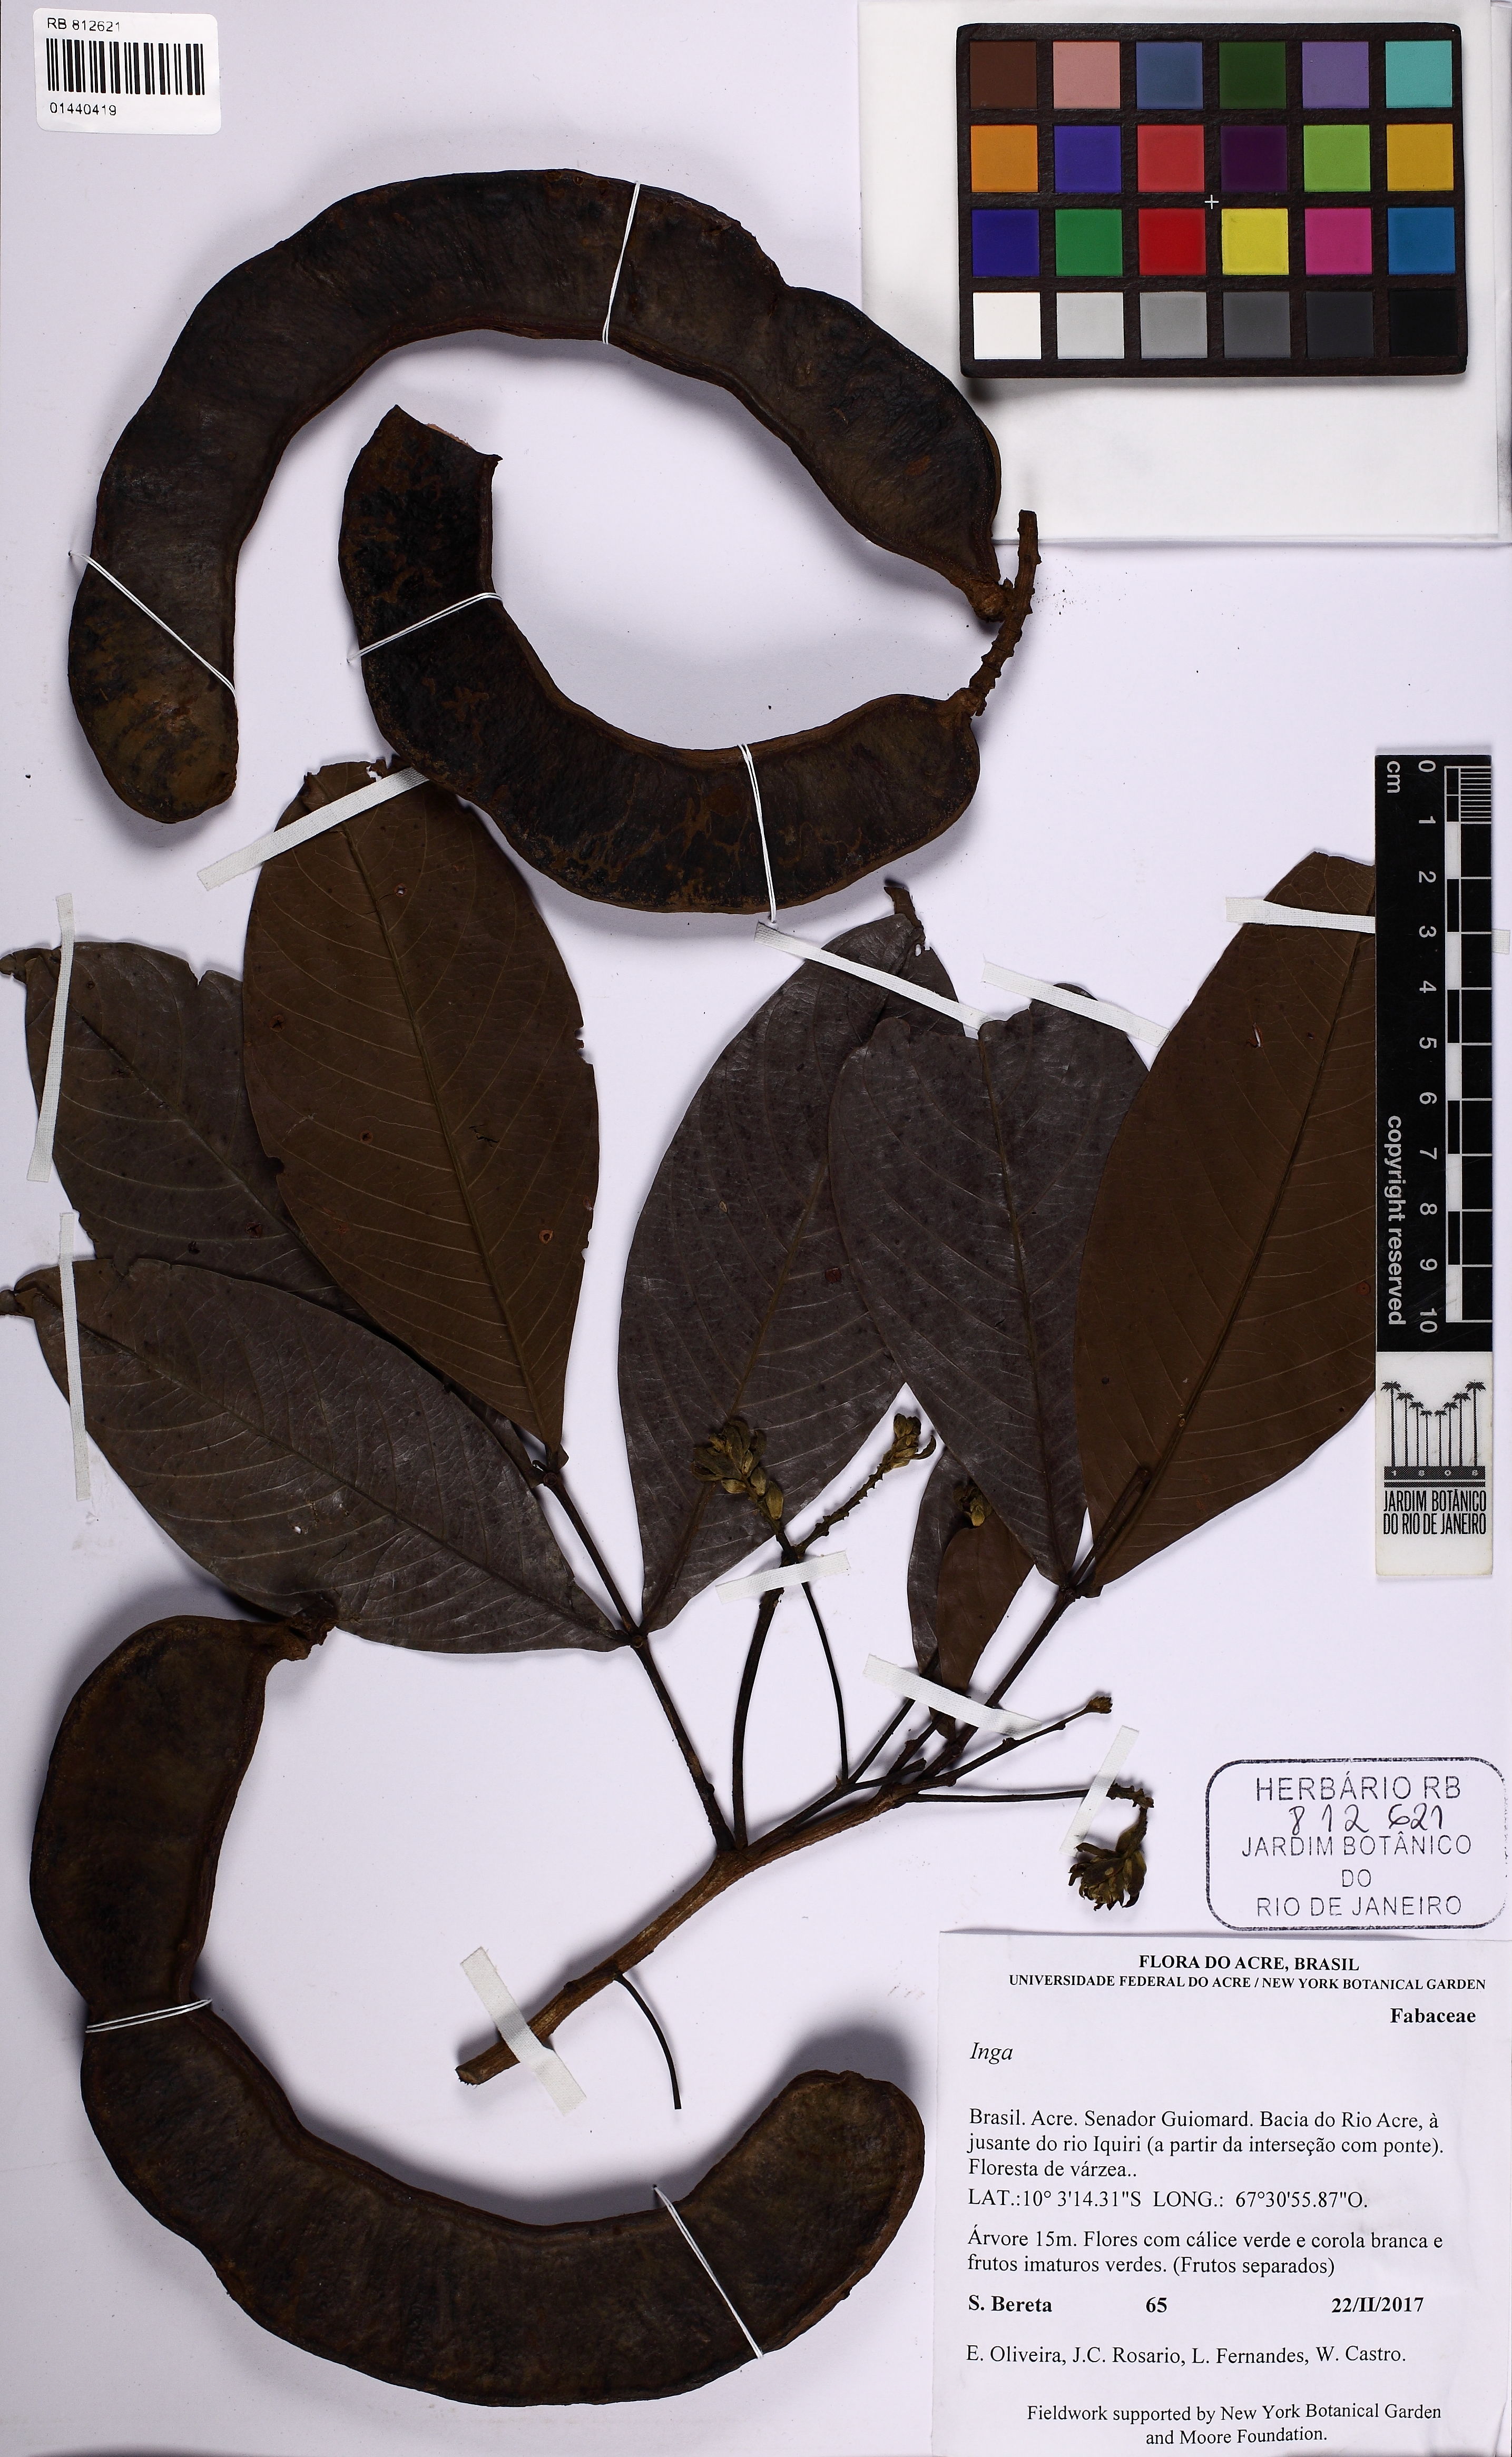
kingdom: Plantae
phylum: Tracheophyta
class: Magnoliopsida
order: Fabales
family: Fabaceae
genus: Inga
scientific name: Inga
